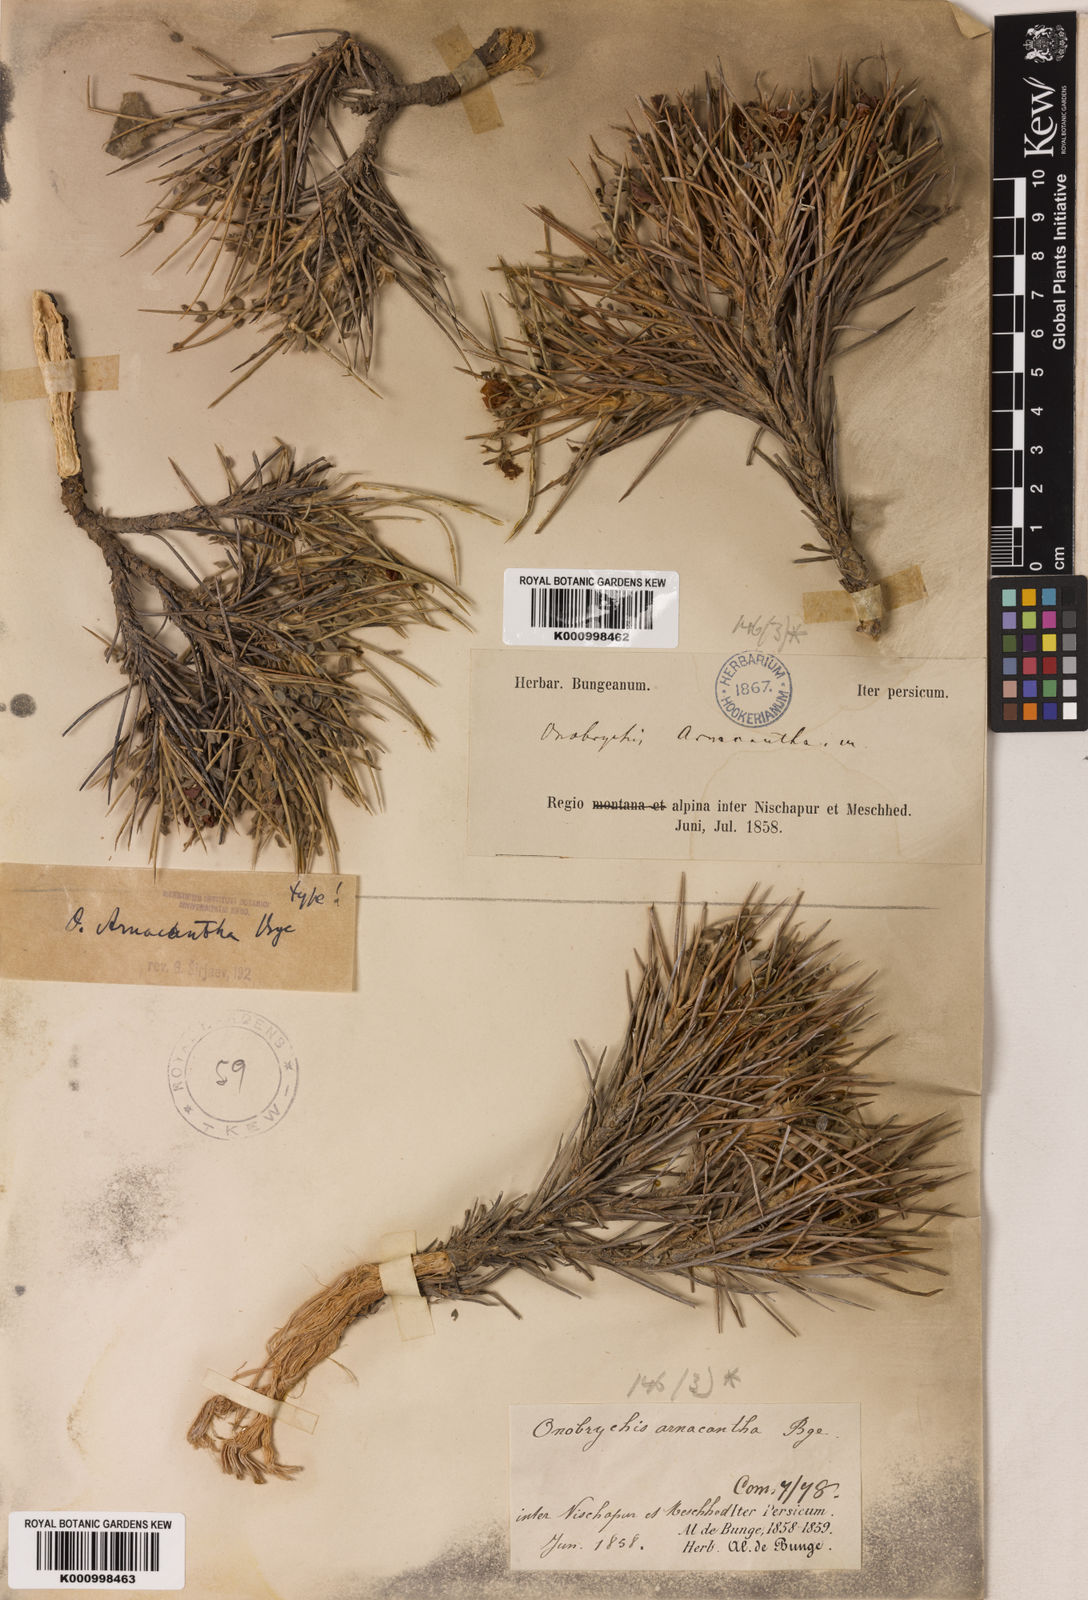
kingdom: Plantae
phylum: Tracheophyta
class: Magnoliopsida
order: Fabales
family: Fabaceae
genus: Onobrychis
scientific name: Onobrychis arnacantha
